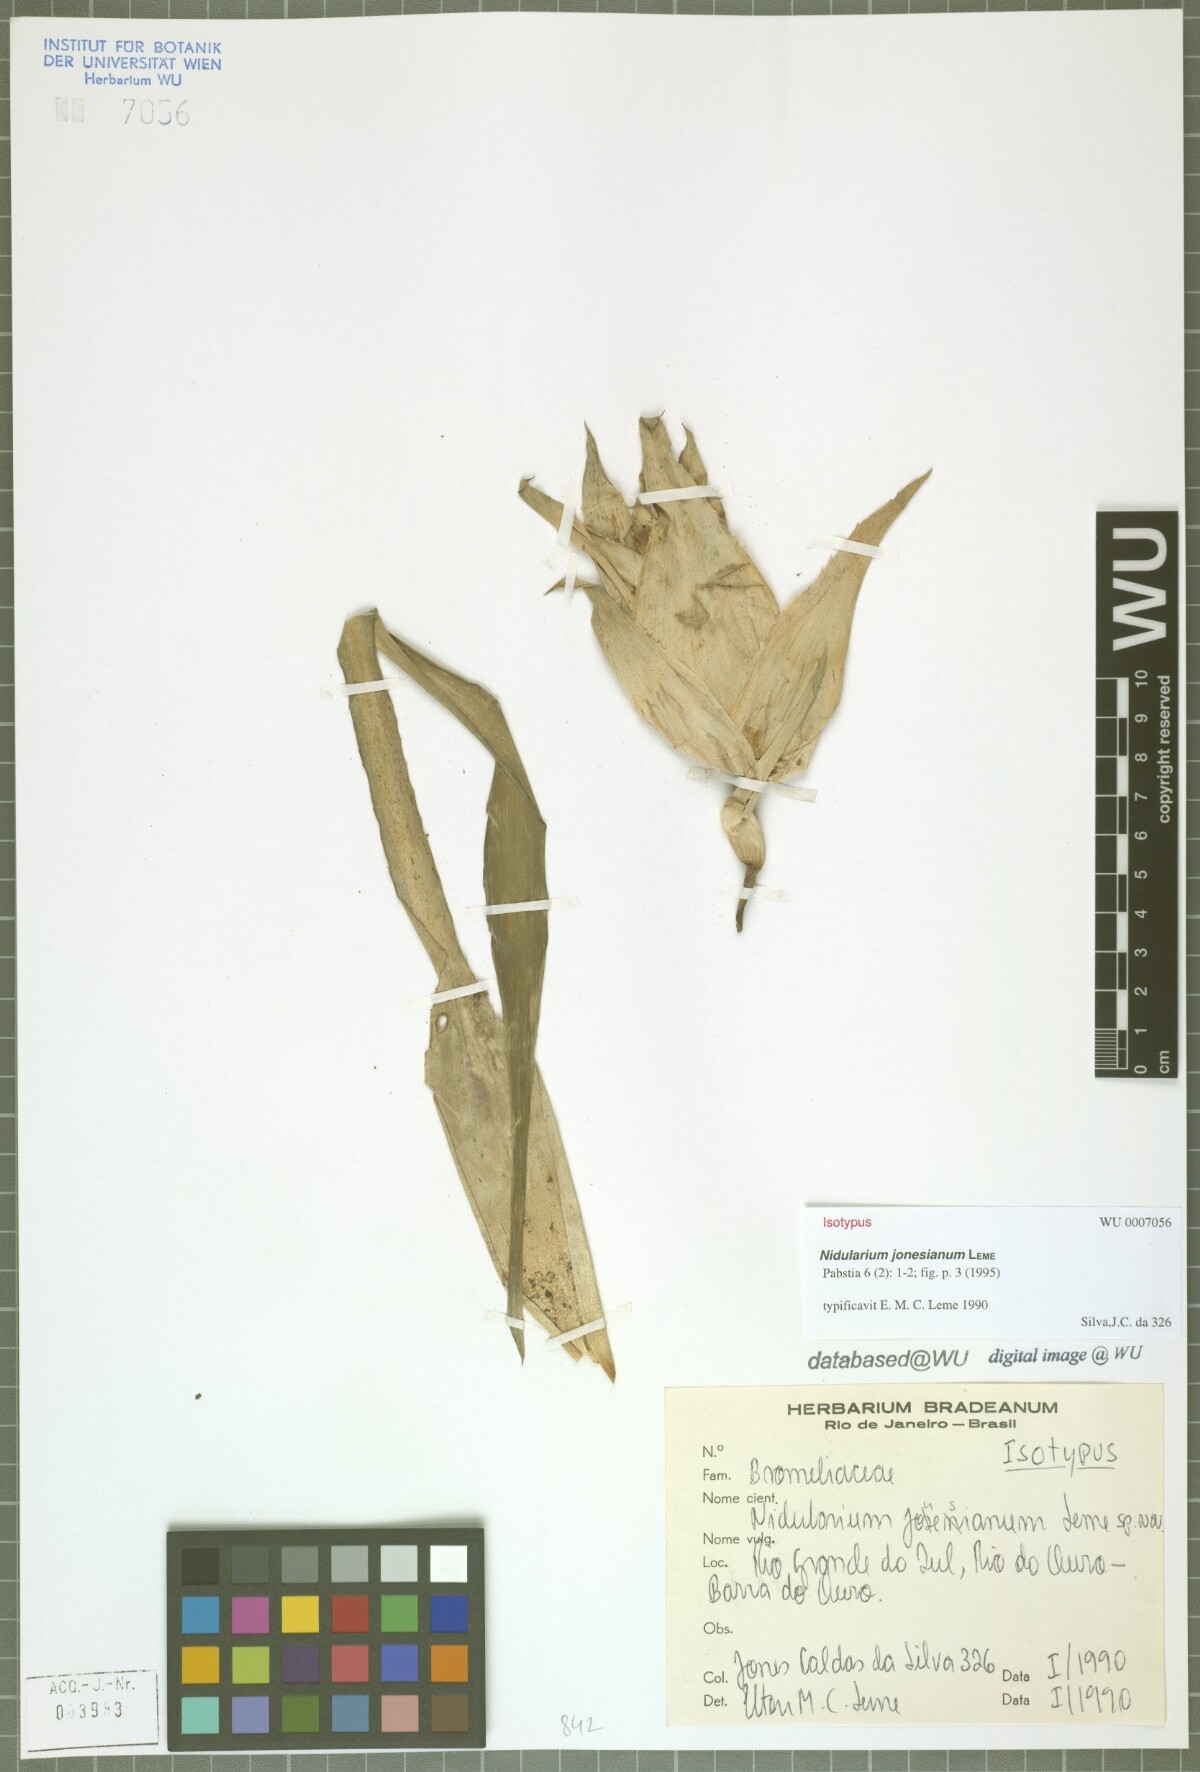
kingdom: Plantae
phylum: Tracheophyta
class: Liliopsida
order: Poales
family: Bromeliaceae
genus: Nidularium
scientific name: Nidularium jonesianum
